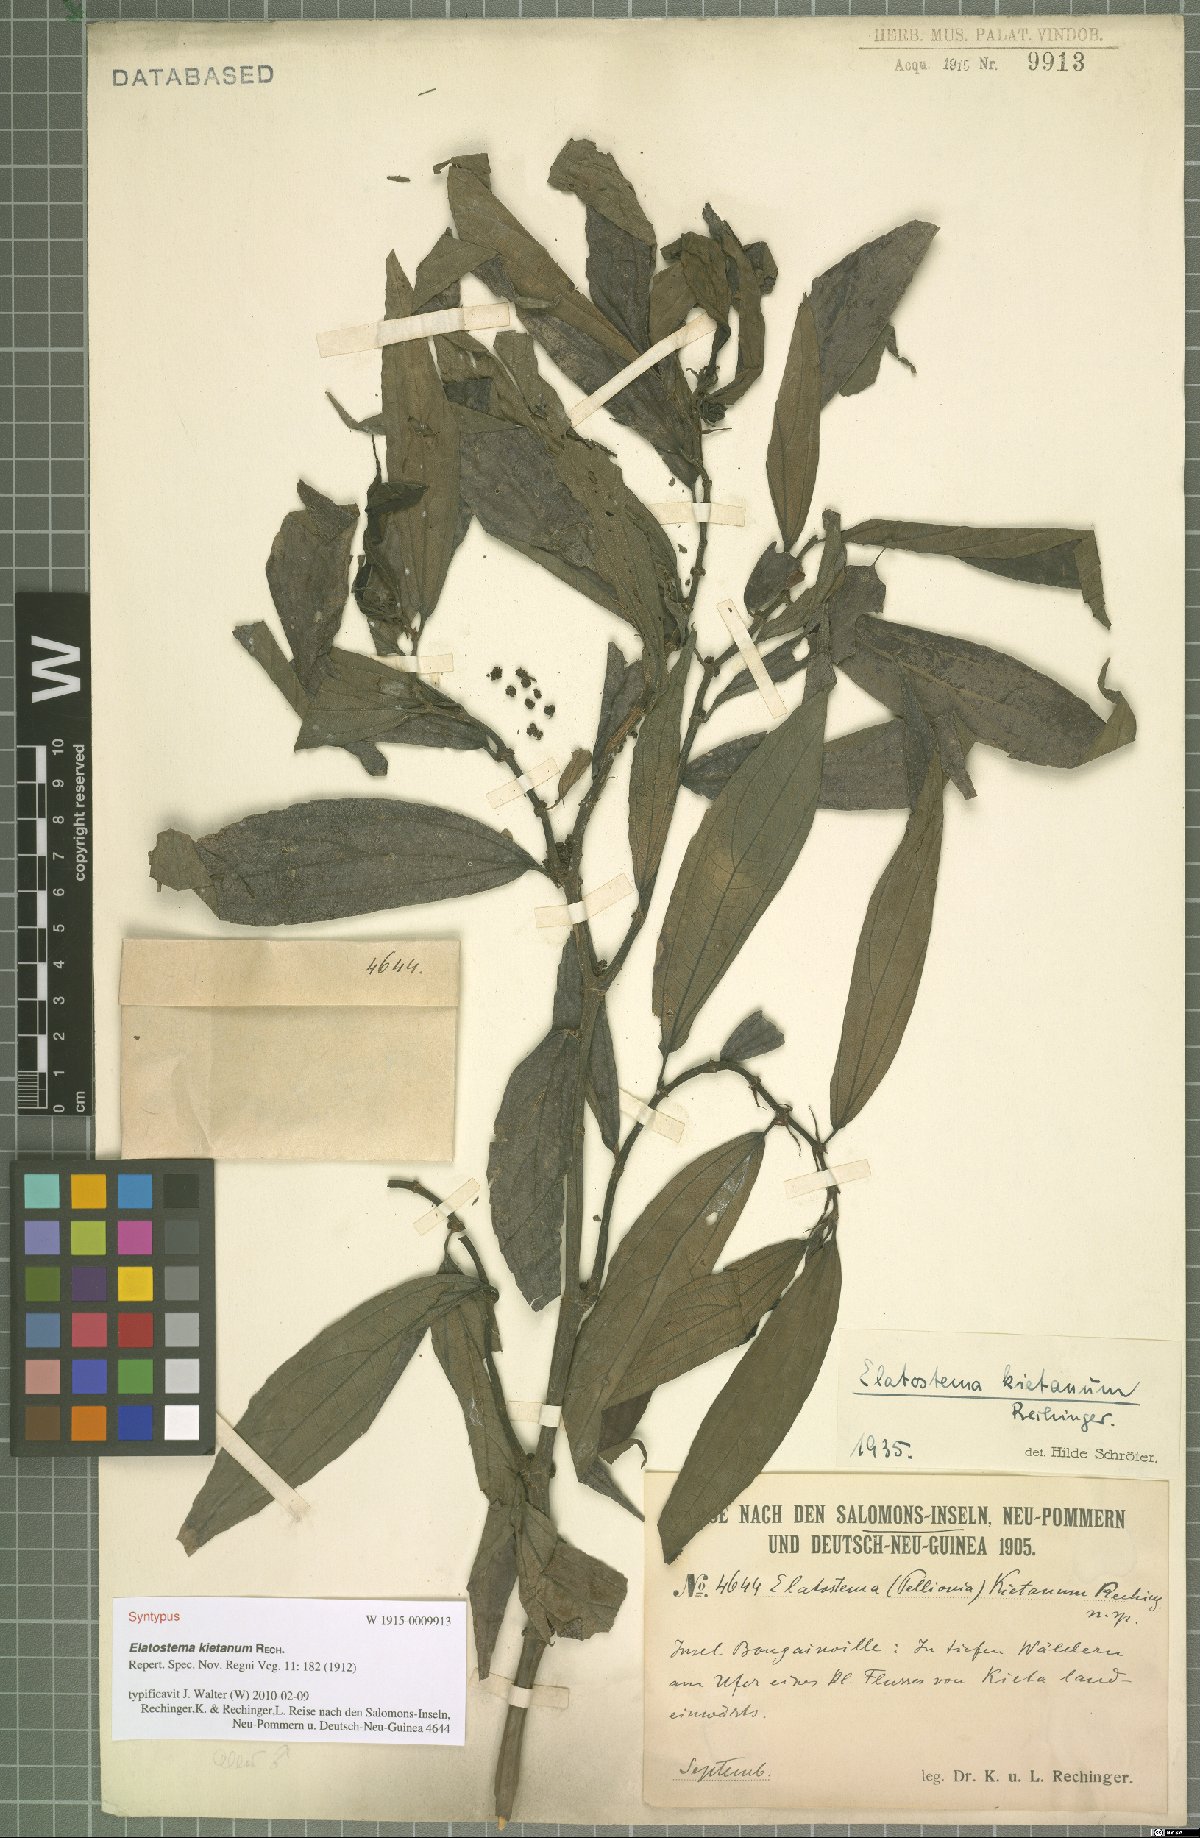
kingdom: Plantae
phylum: Tracheophyta
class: Magnoliopsida
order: Rosales
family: Urticaceae
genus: Elatostema
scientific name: Elatostema kietanum
